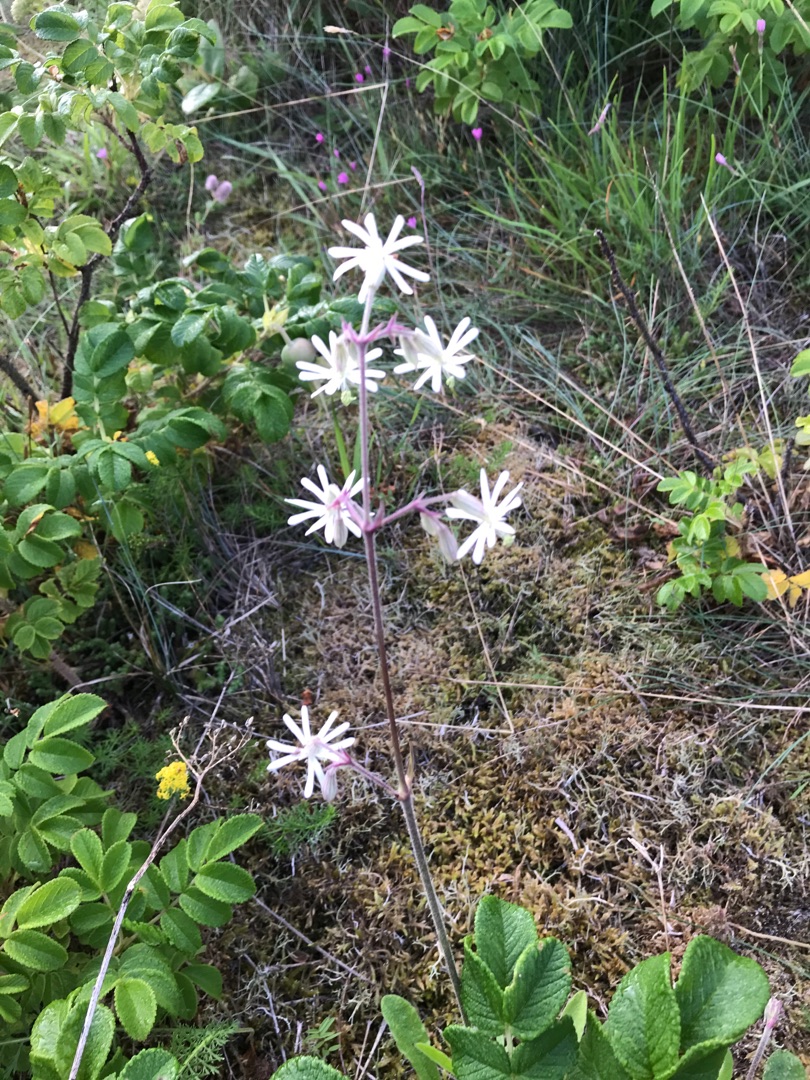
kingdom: Plantae
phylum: Tracheophyta
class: Magnoliopsida
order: Caryophyllales
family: Caryophyllaceae
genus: Silene
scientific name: Silene nutans
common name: Nikkende limurt
